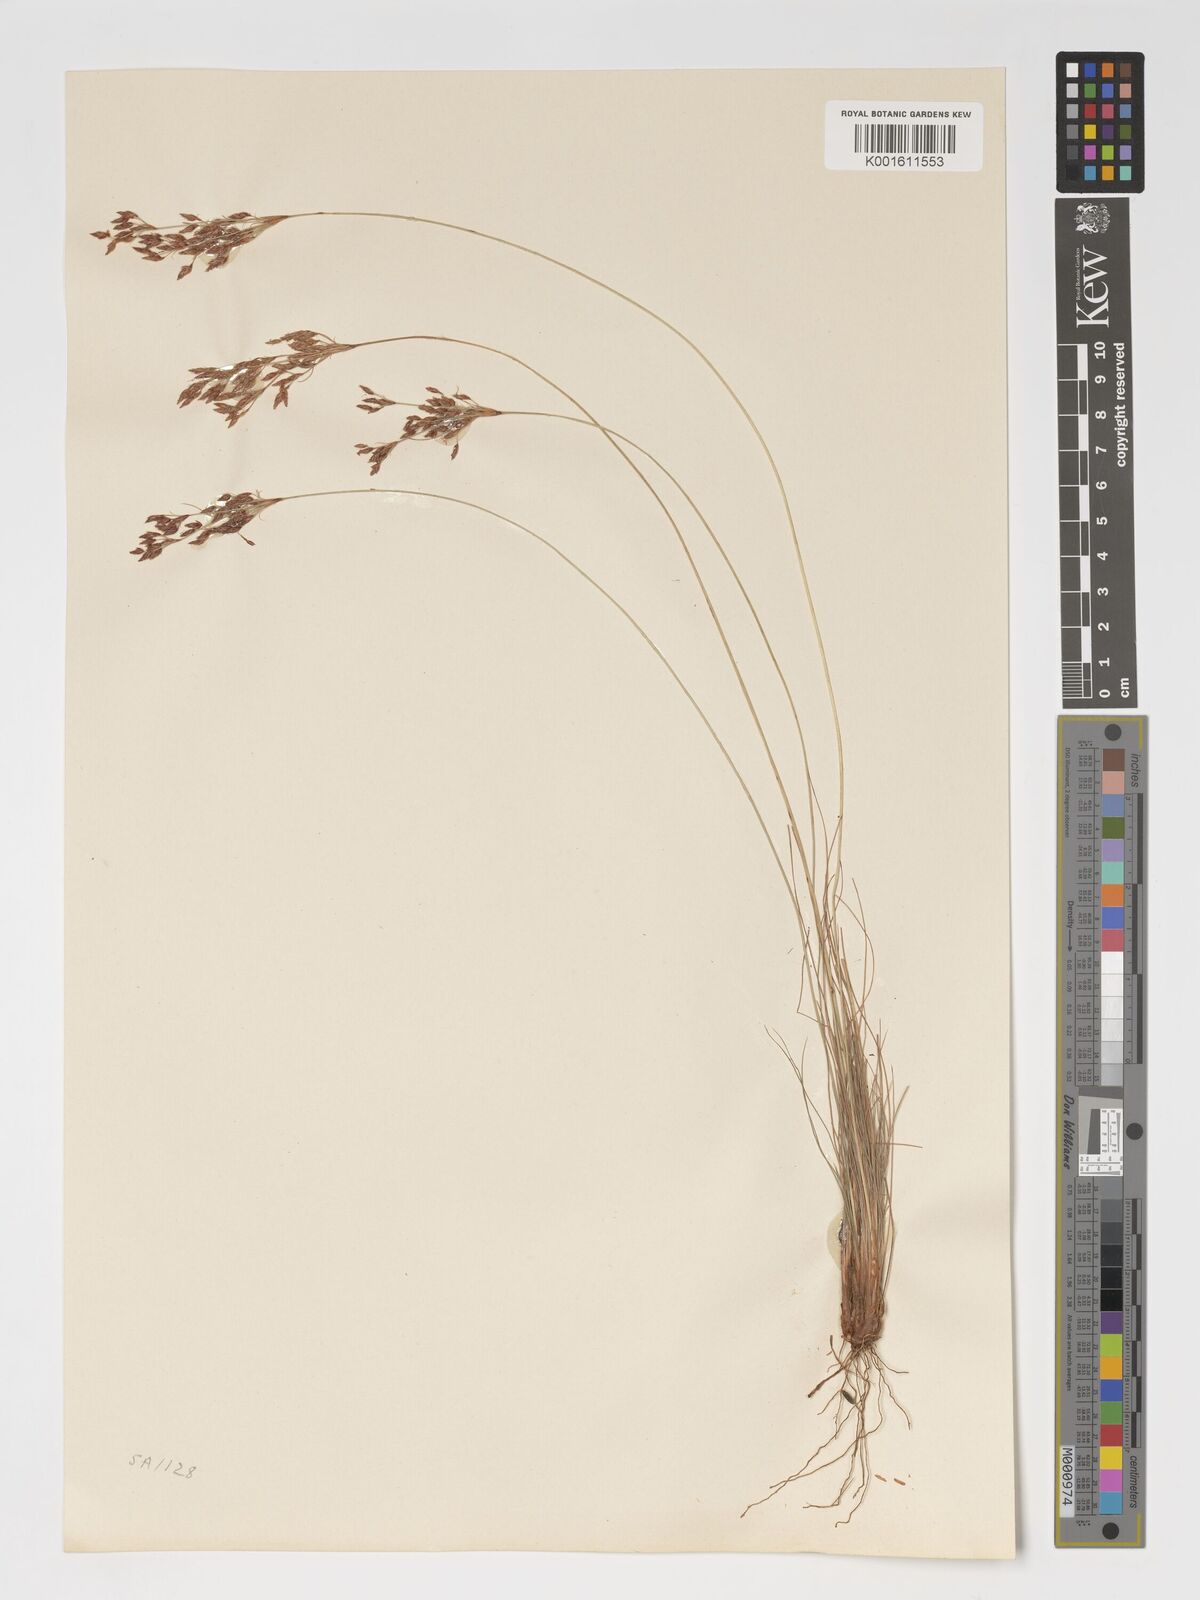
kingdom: Plantae
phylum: Tracheophyta
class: Liliopsida
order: Poales
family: Cyperaceae
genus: Bulbostylis
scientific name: Bulbostylis hispidula
